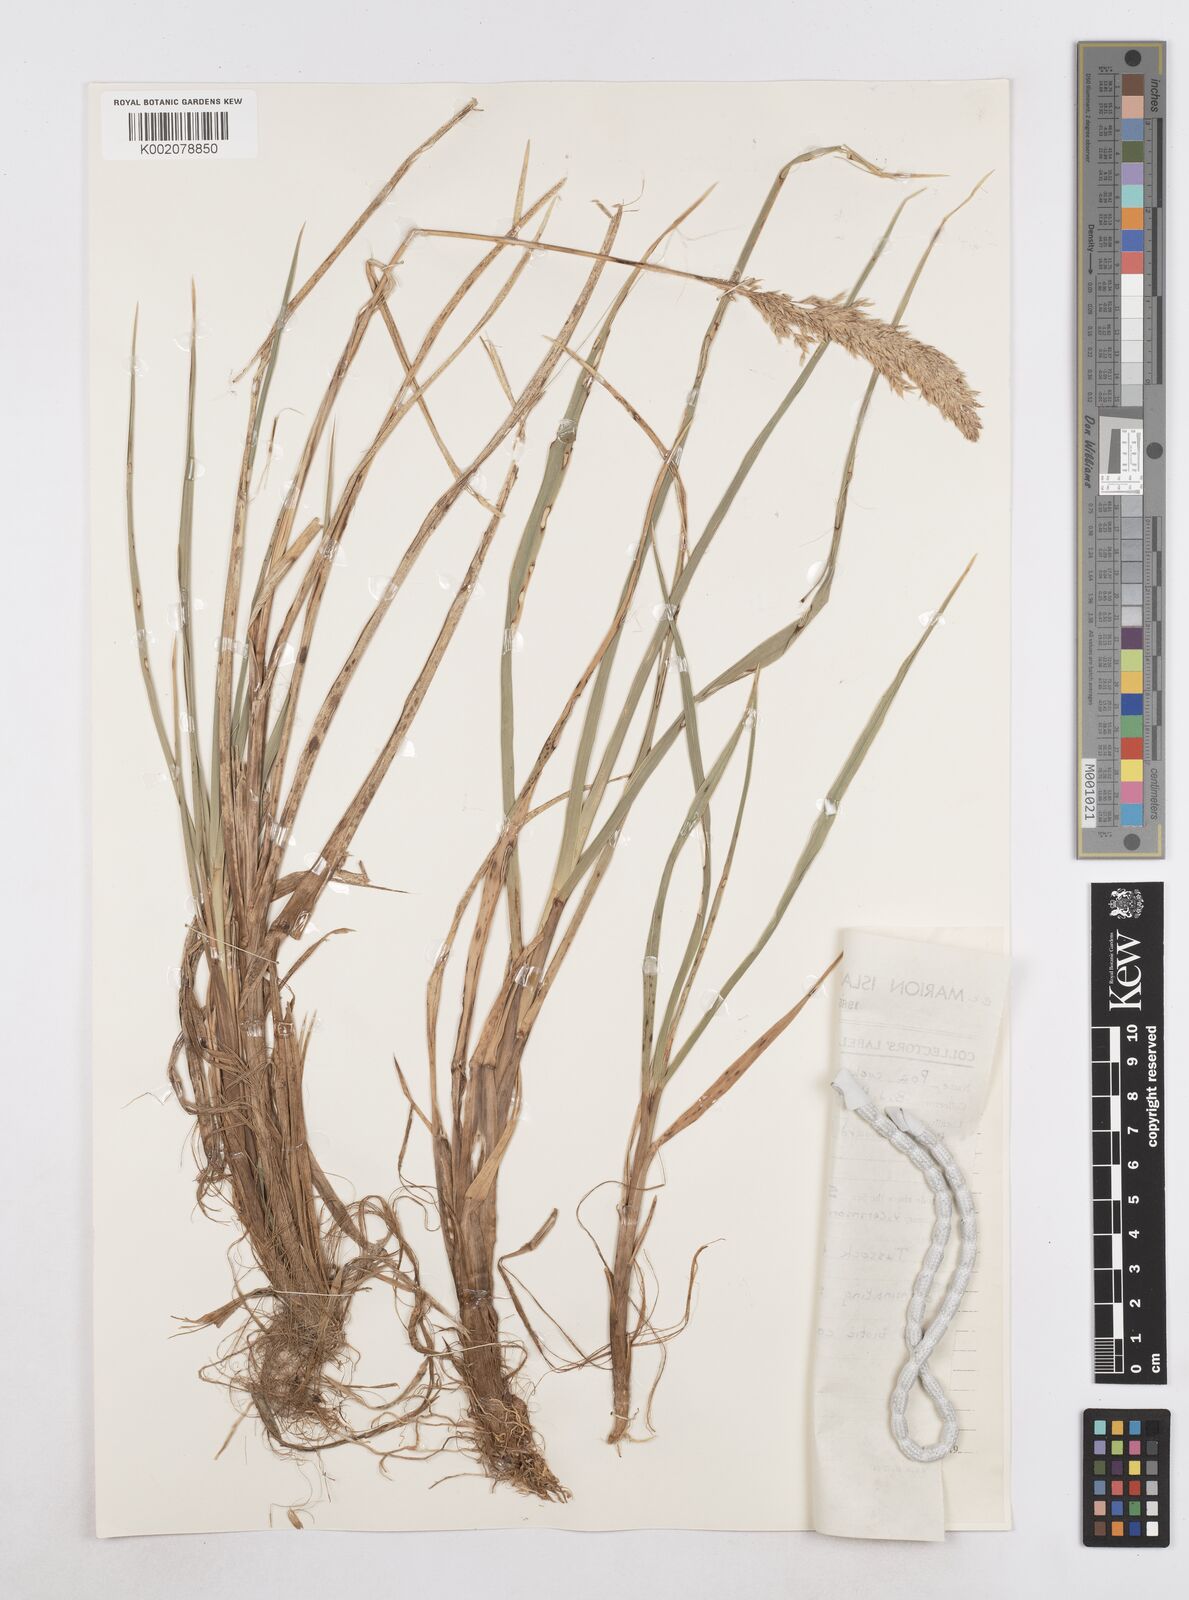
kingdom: Plantae
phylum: Tracheophyta
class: Liliopsida
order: Poales
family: Poaceae
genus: Poa
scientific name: Poa cookii
